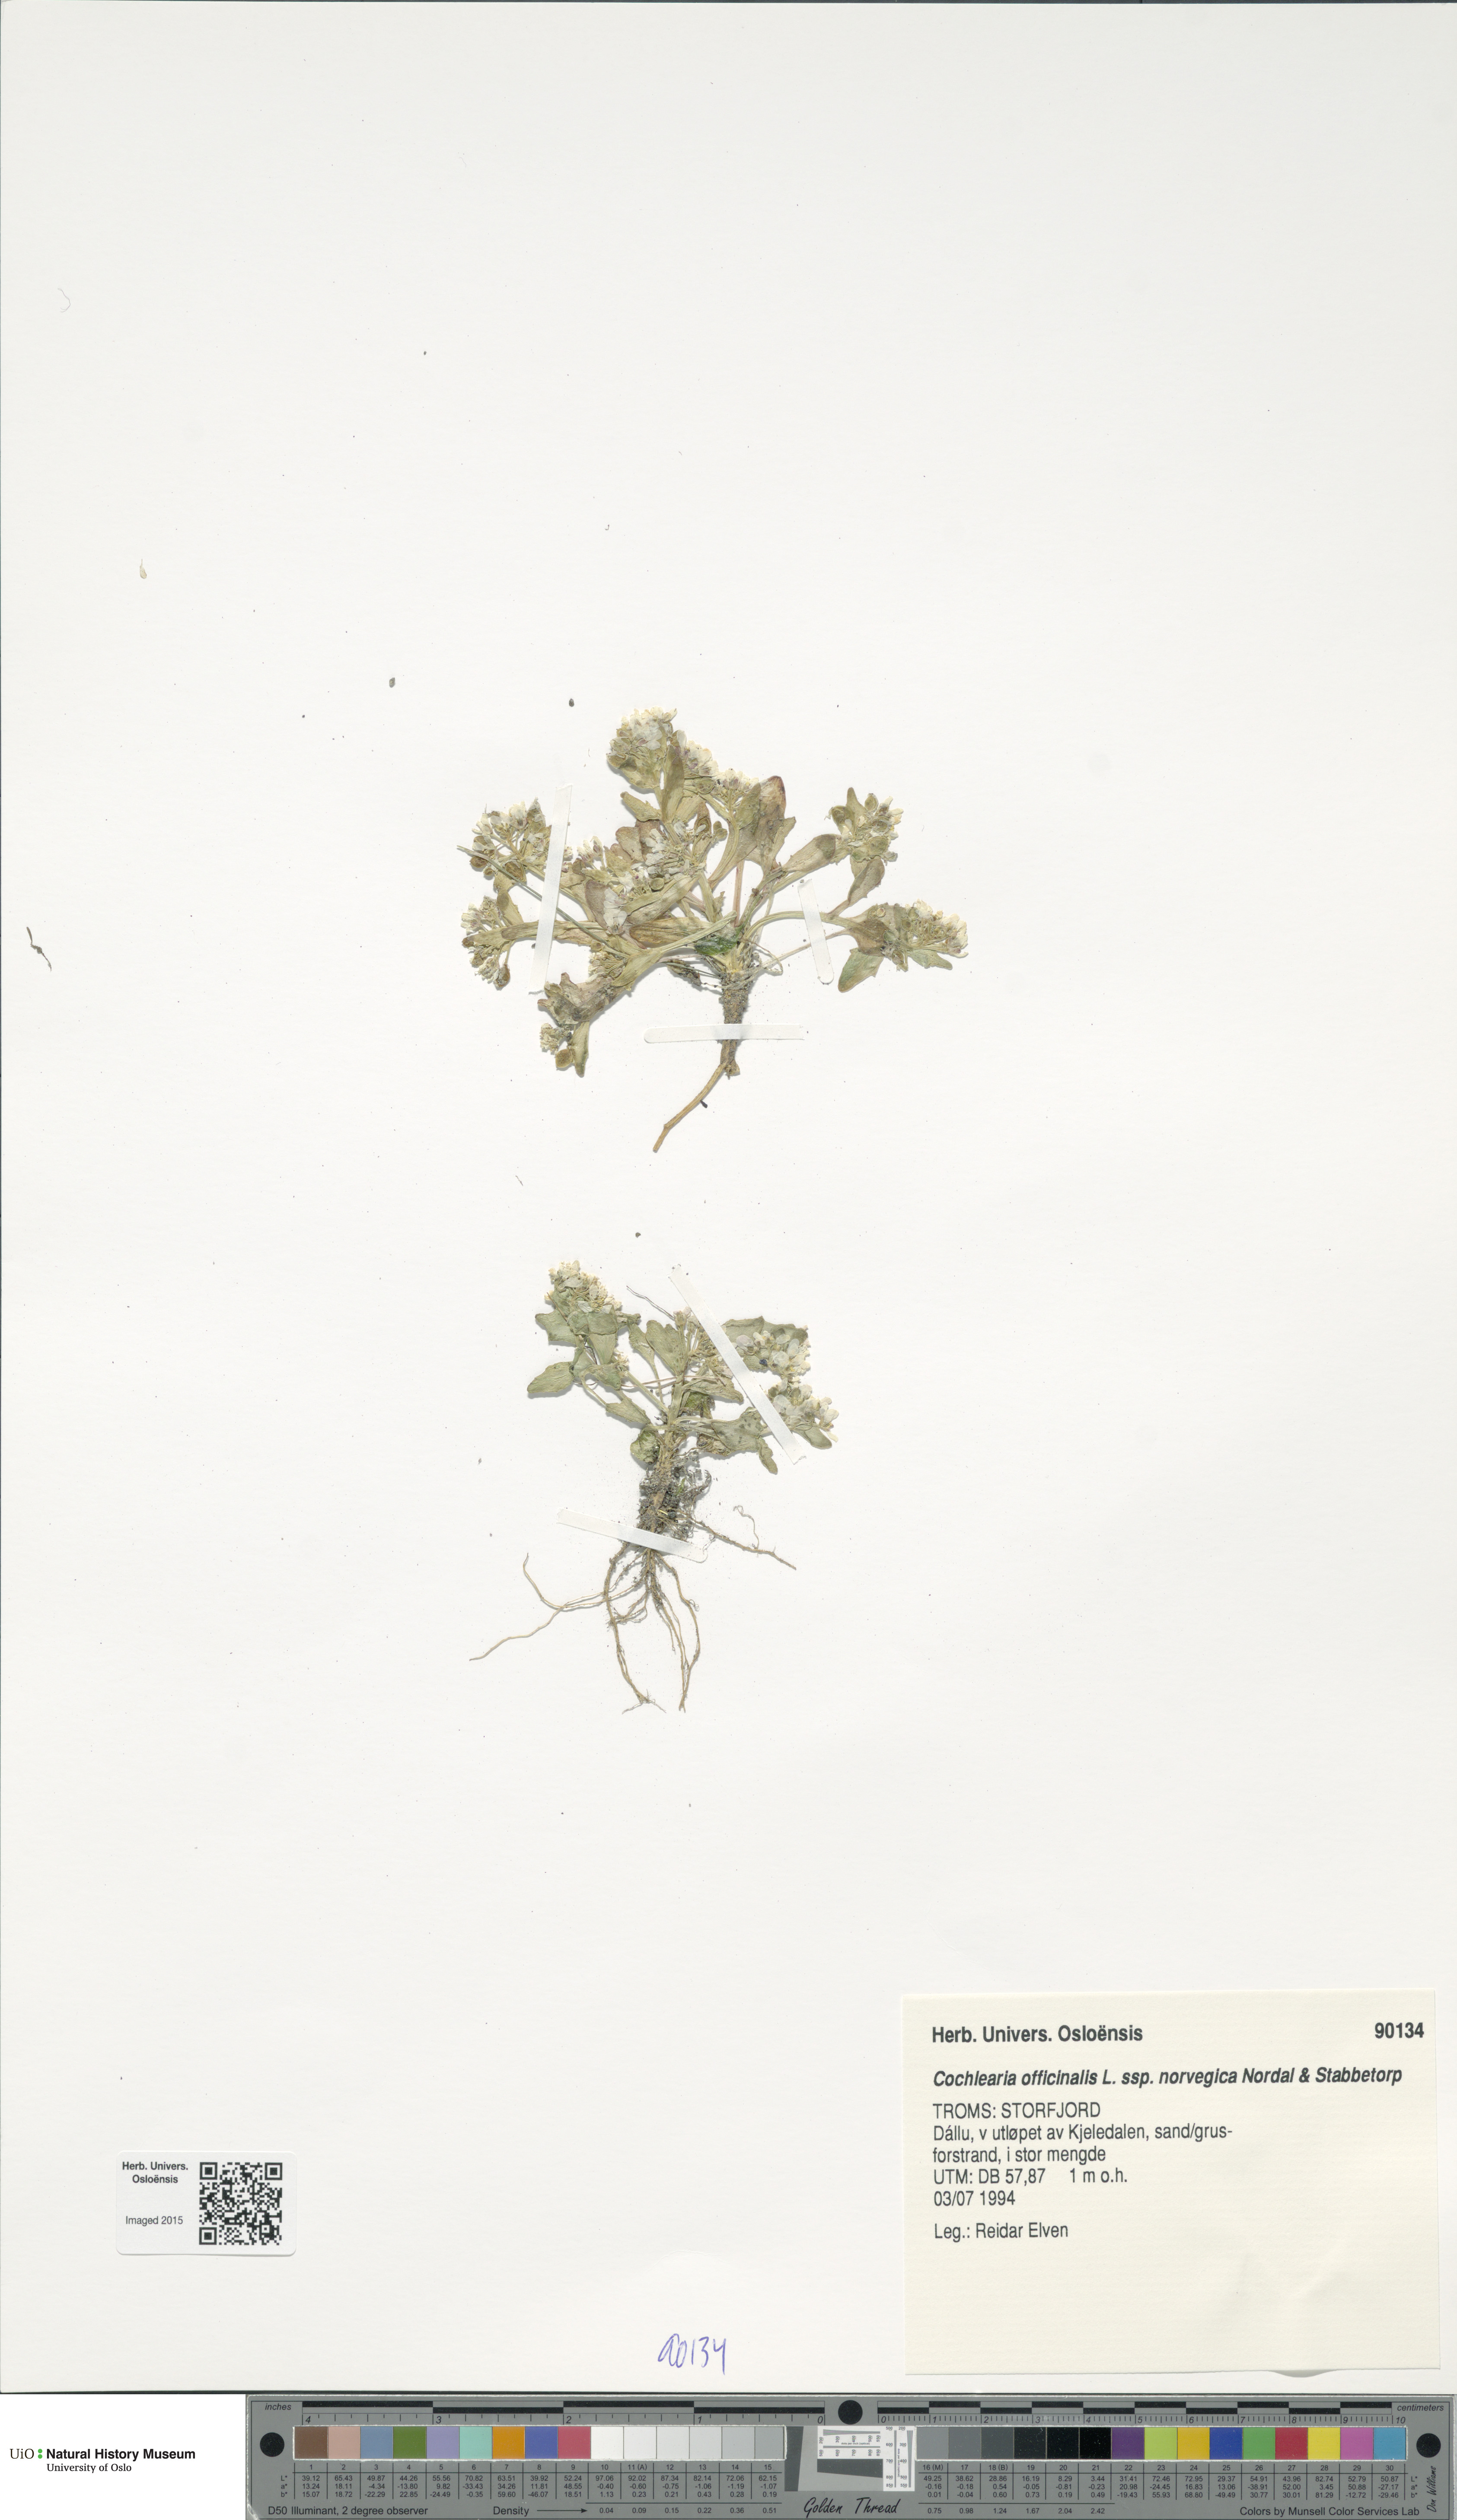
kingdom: Plantae
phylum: Tracheophyta
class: Magnoliopsida
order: Brassicales
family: Brassicaceae
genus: Cochlearia
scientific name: Cochlearia officinalis
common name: Scurvy-grass
